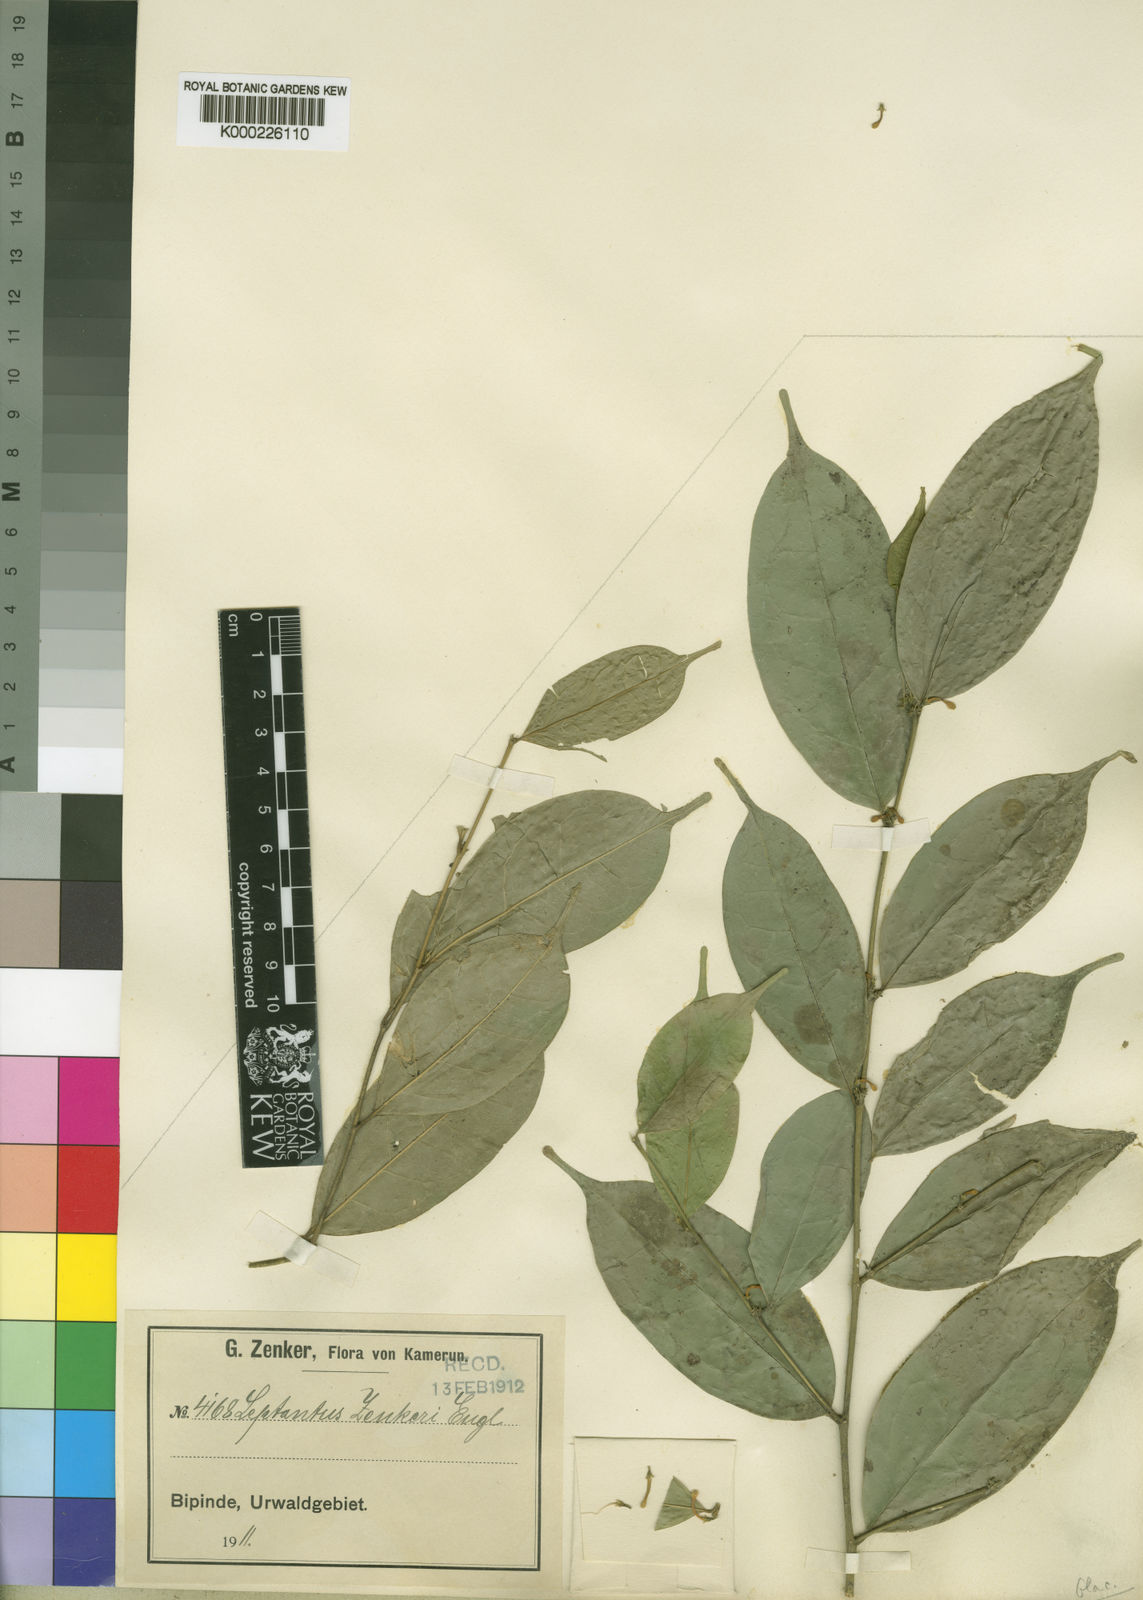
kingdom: Plantae
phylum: Tracheophyta
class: Magnoliopsida
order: Cardiopteridales
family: Cardiopteridaceae
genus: Leptaulus
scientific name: Leptaulus congolanus
